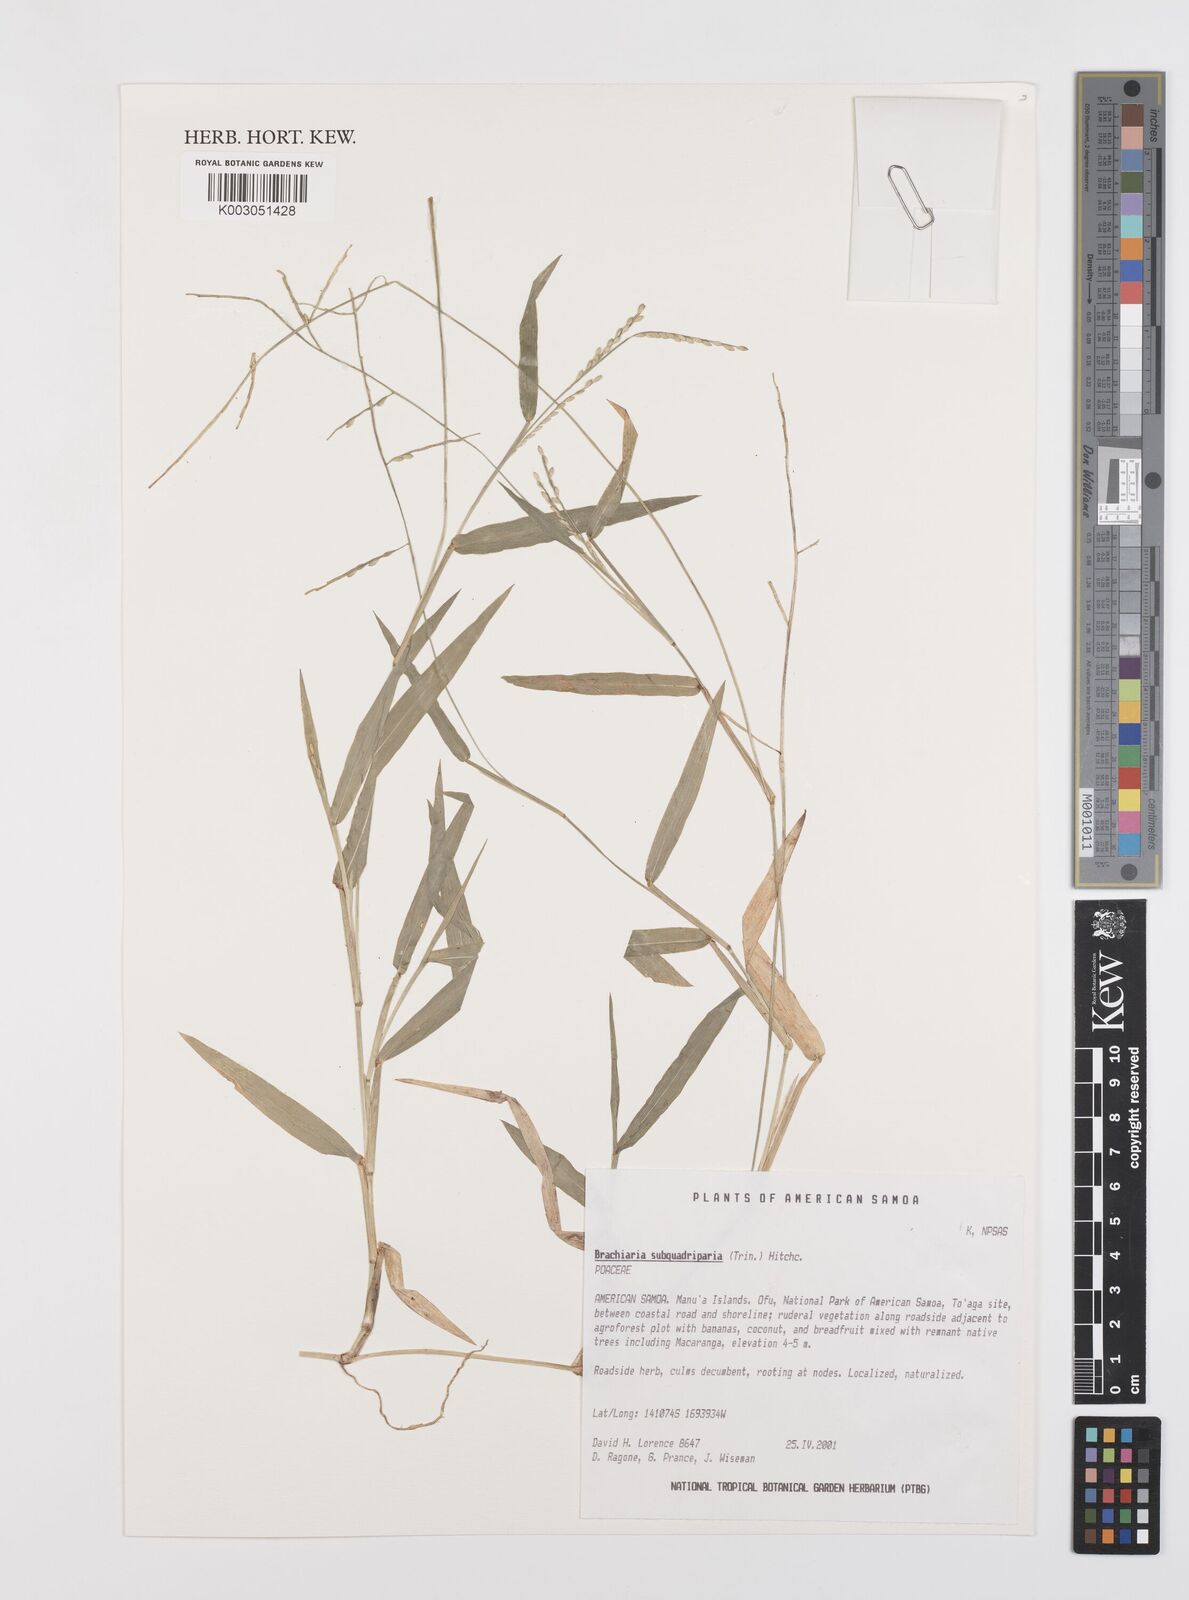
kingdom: Plantae
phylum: Tracheophyta
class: Liliopsida
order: Poales
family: Poaceae
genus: Urochloa
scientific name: Urochloa subquadripara
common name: Armgrass millet
